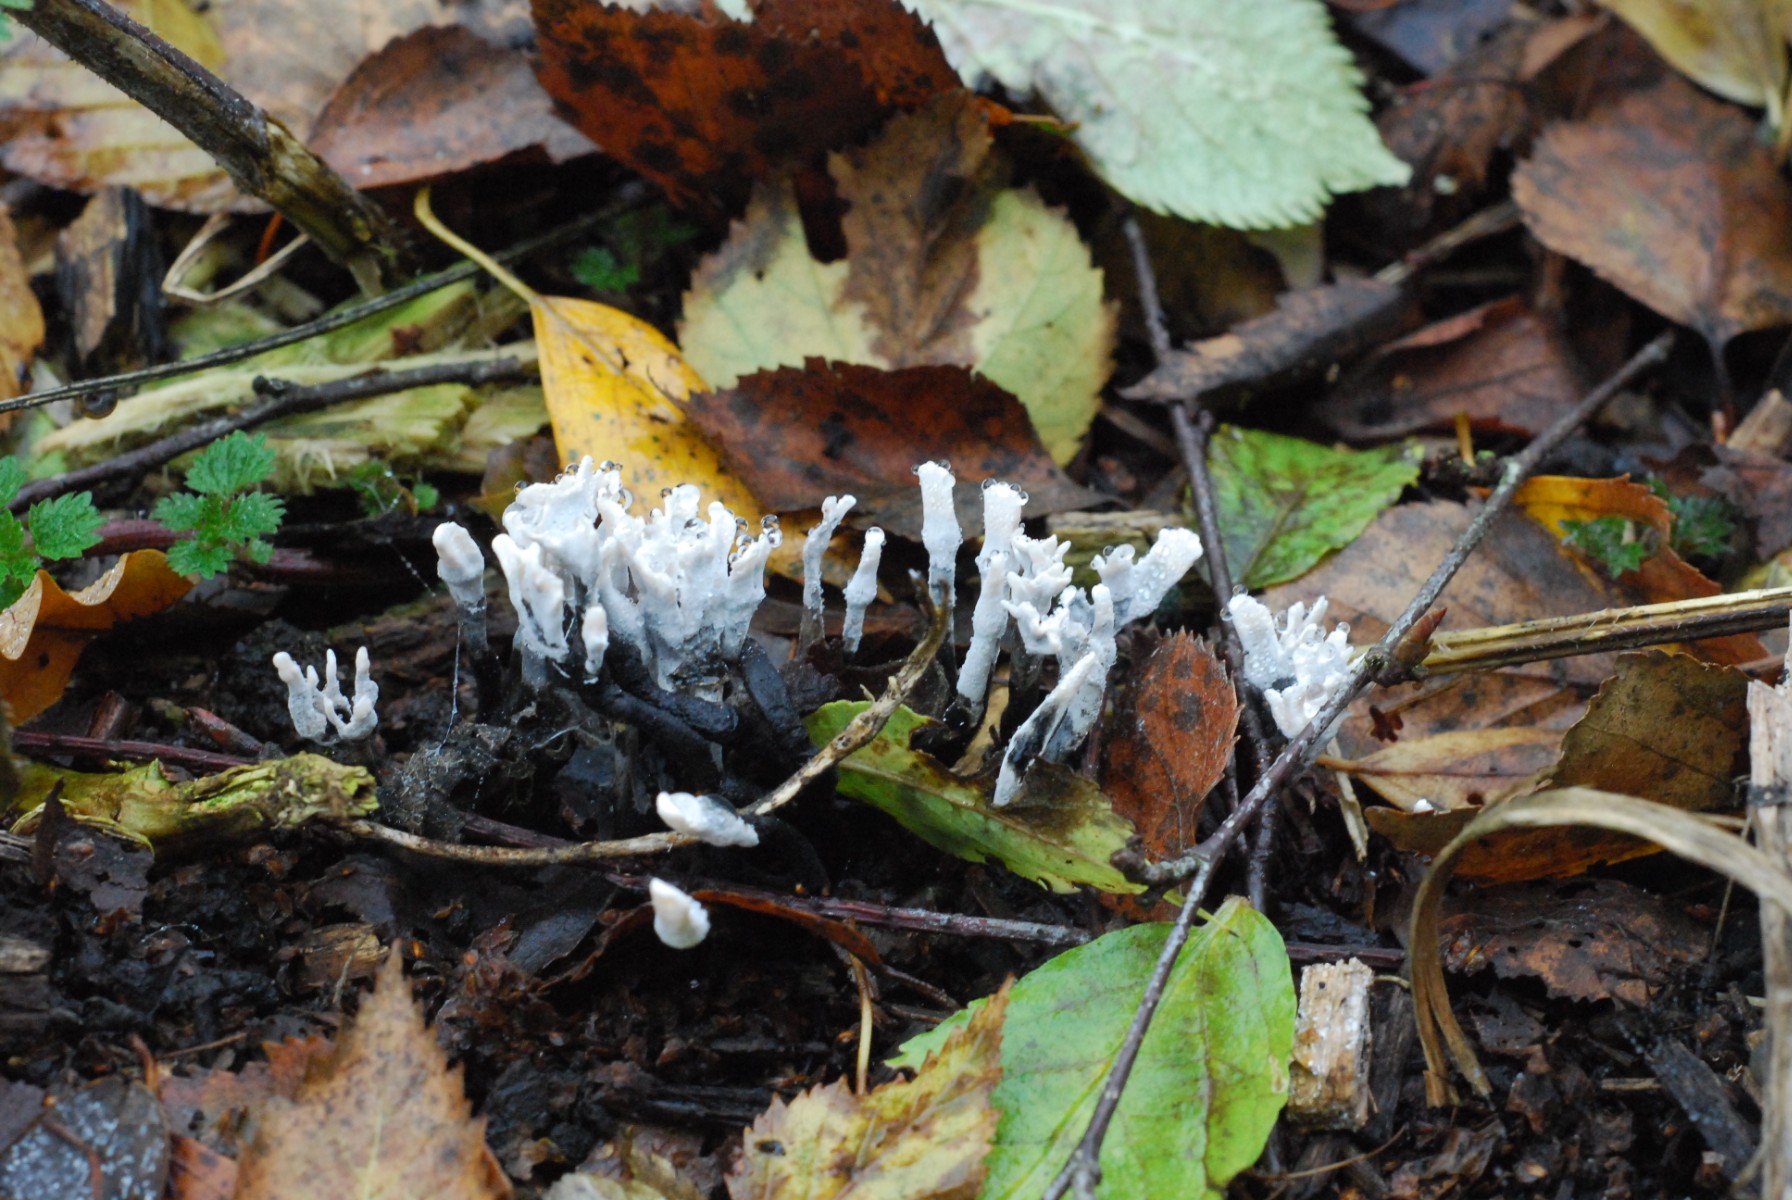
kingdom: Fungi
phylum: Ascomycota
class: Sordariomycetes
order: Xylariales
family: Xylariaceae
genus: Xylaria
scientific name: Xylaria hypoxylon
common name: grenet stødsvamp
